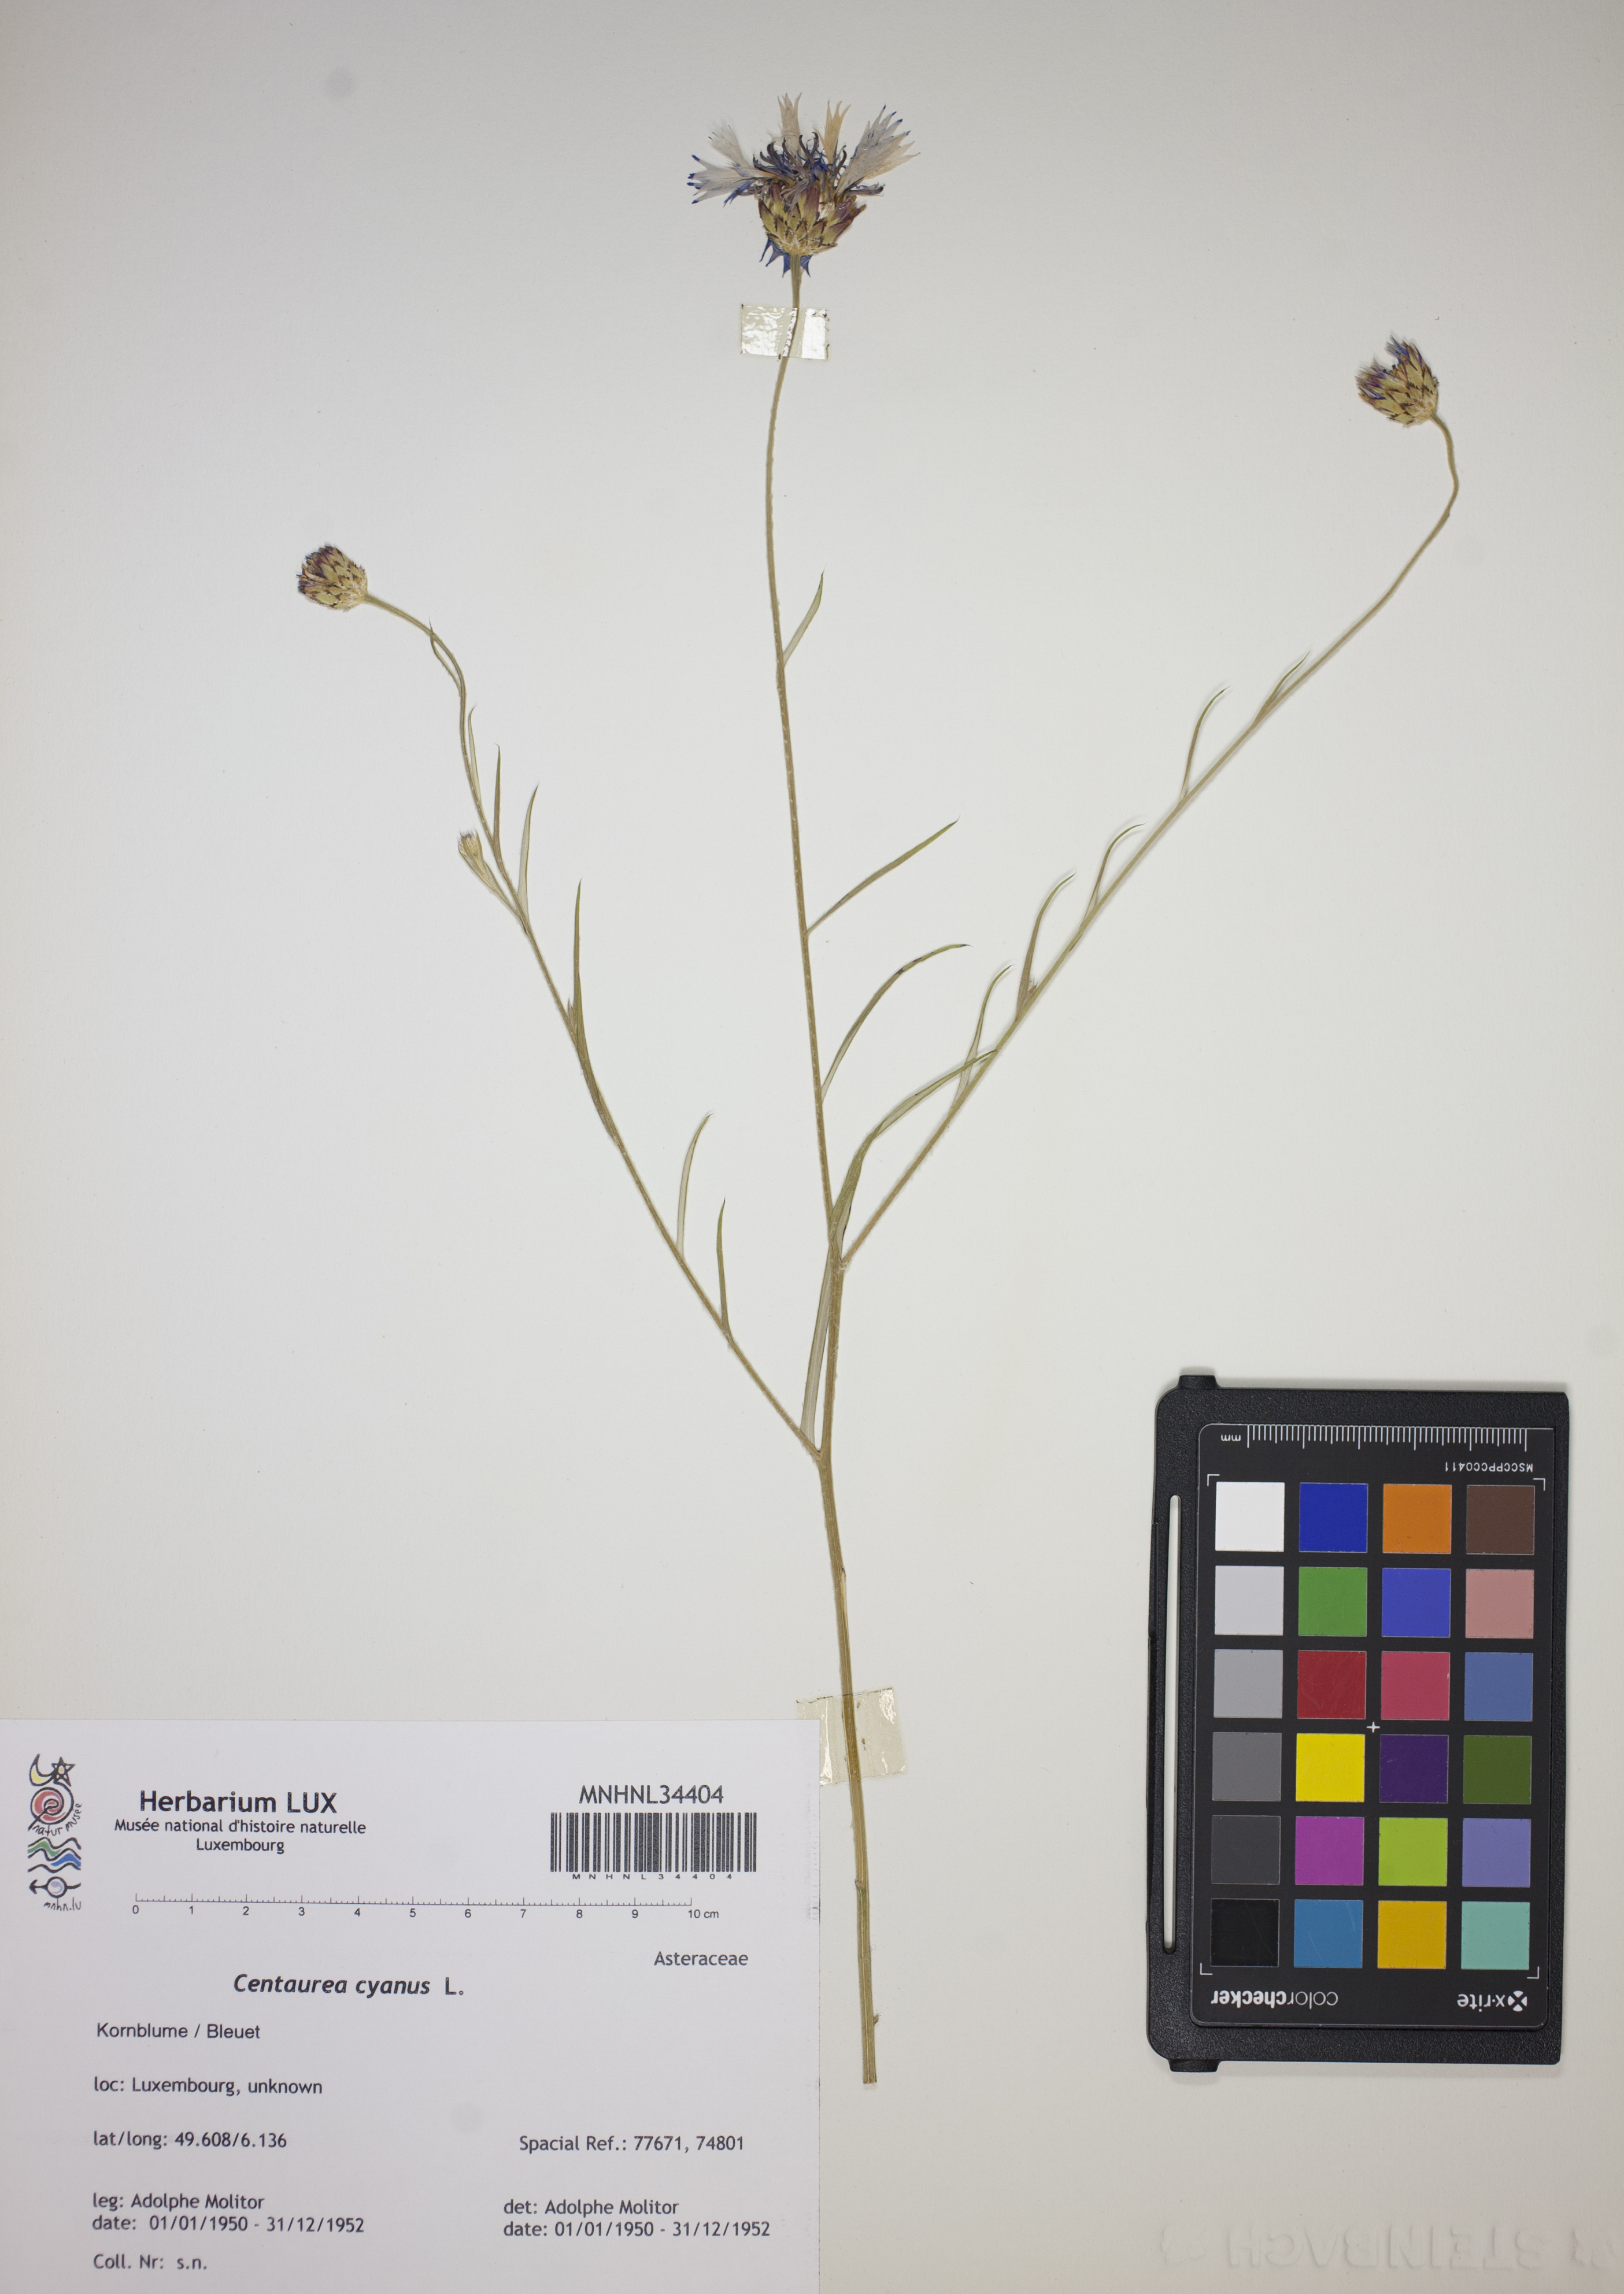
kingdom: Plantae
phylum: Tracheophyta
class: Magnoliopsida
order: Asterales
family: Asteraceae
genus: Centaurea
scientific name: Centaurea cyanus
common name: Cornflower
